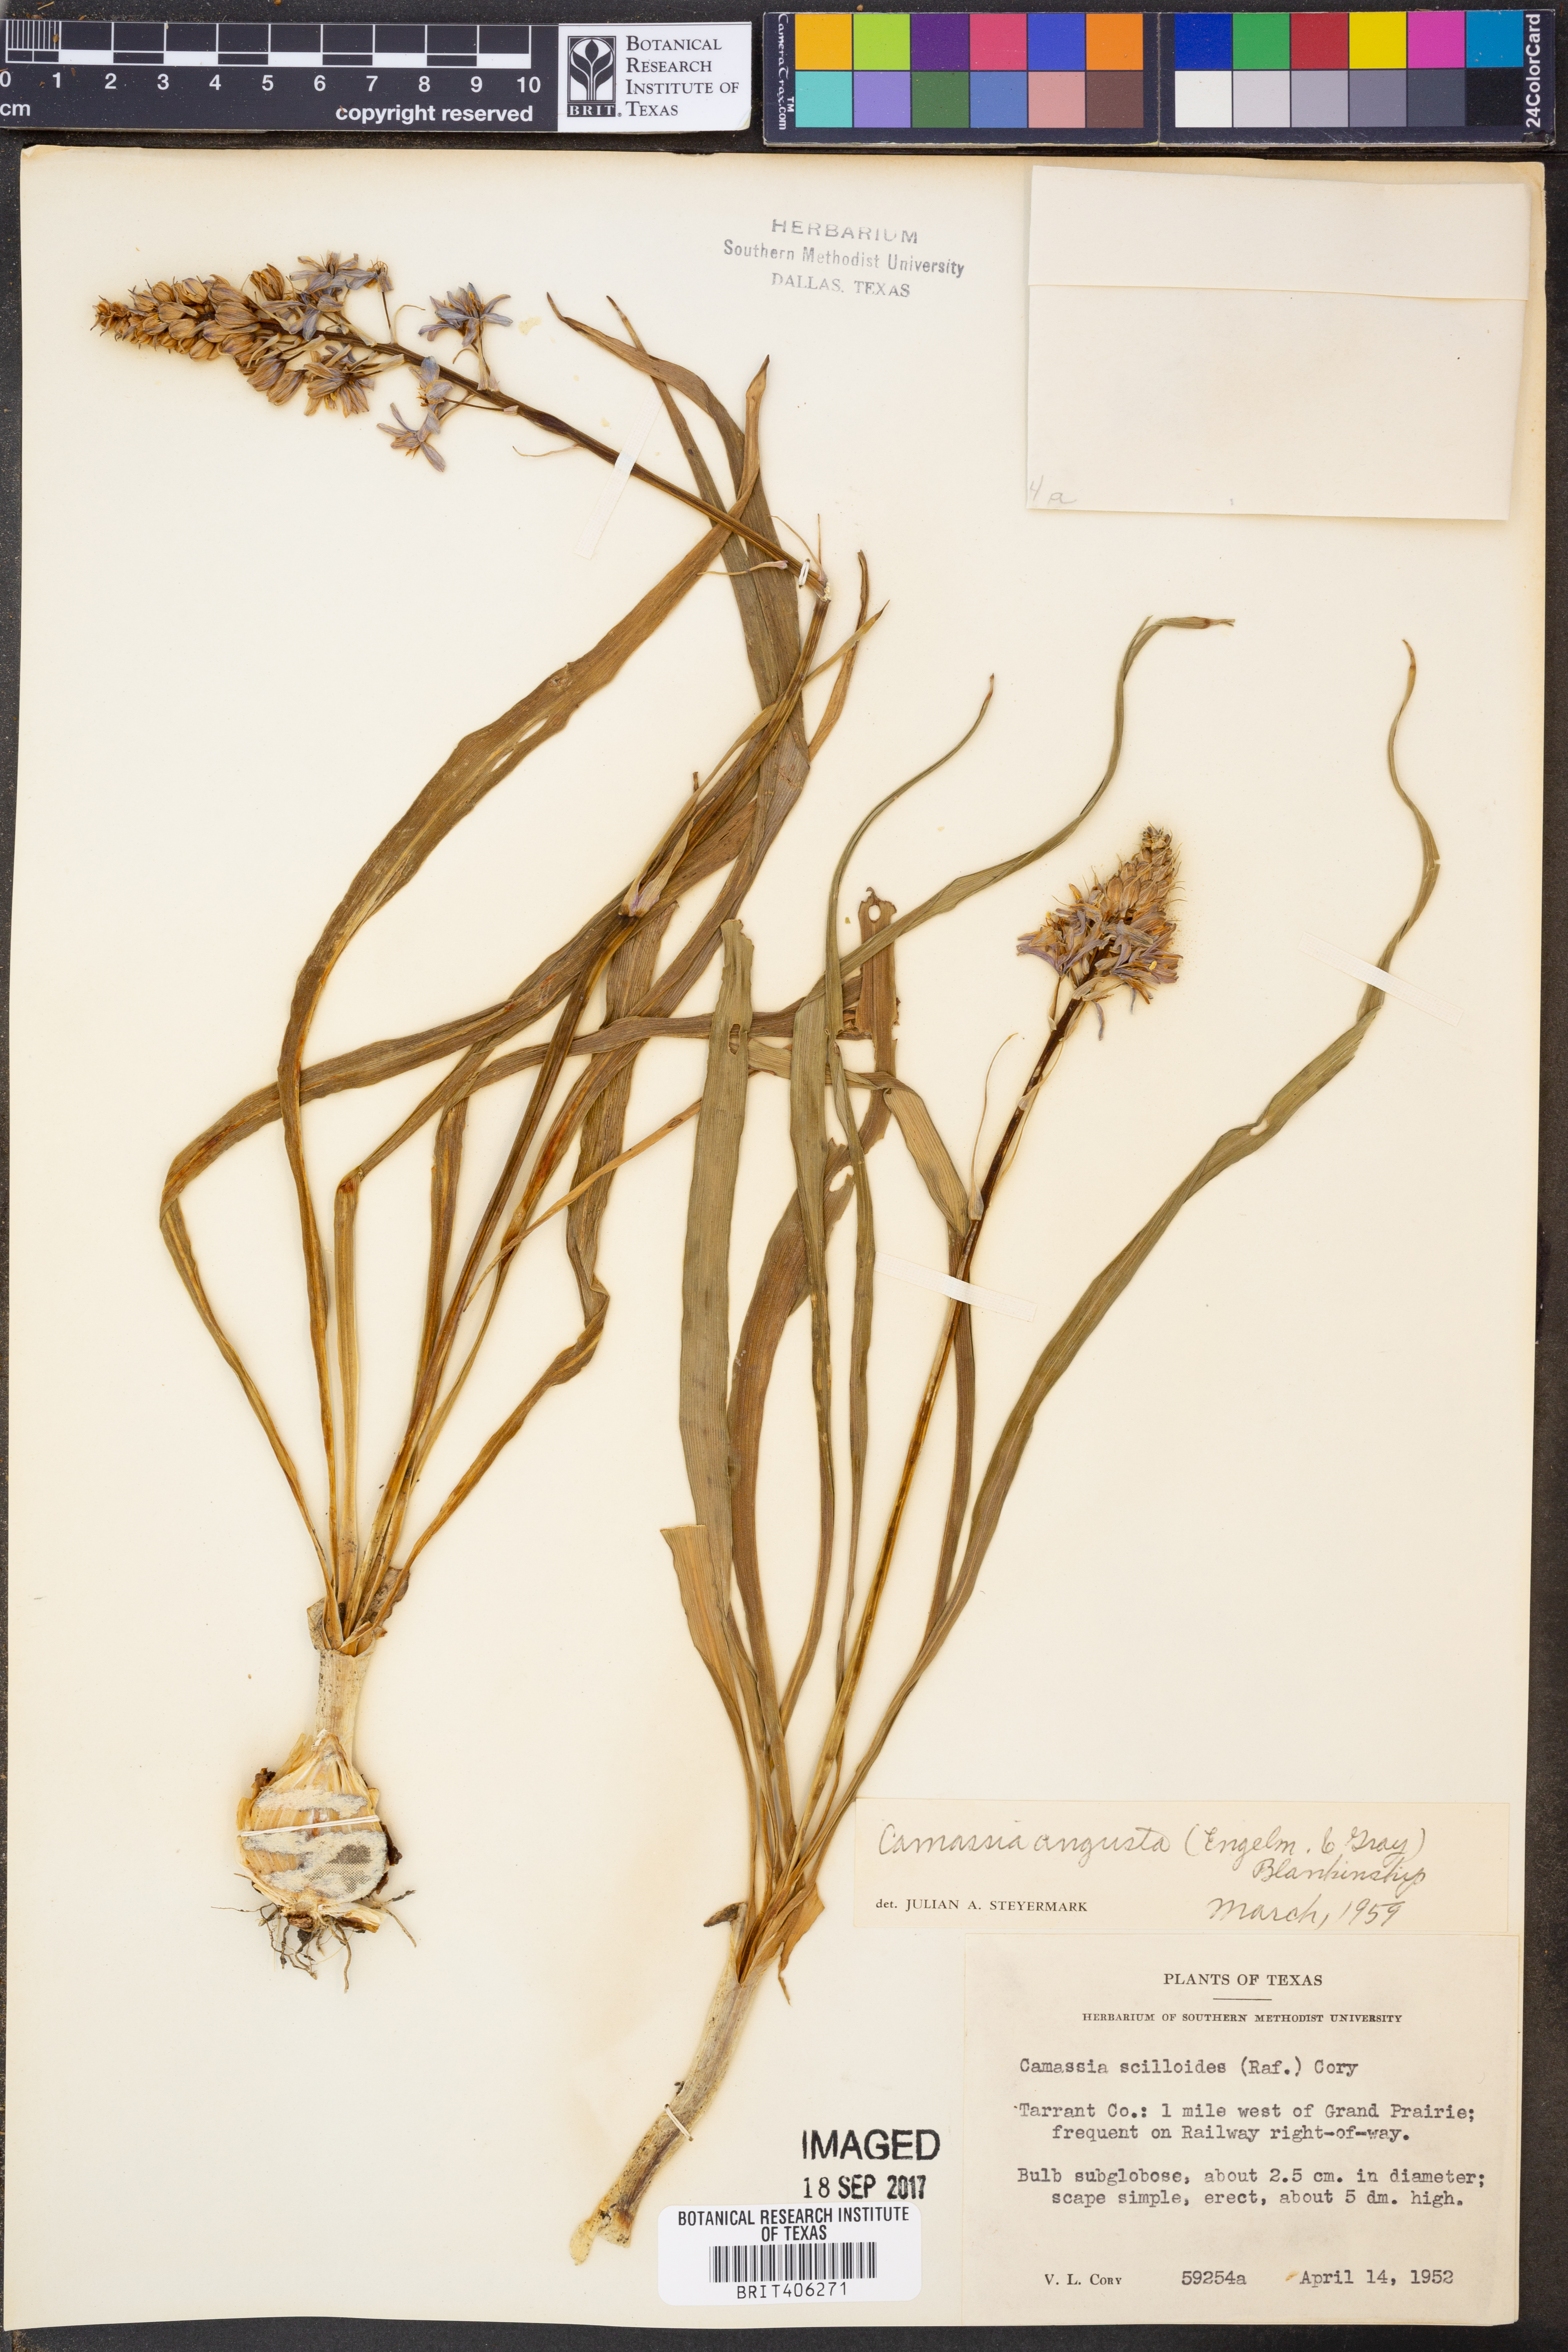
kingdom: Plantae
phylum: Tracheophyta
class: Liliopsida
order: Asparagales
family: Asparagaceae
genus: Camassia
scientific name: Camassia angusta
